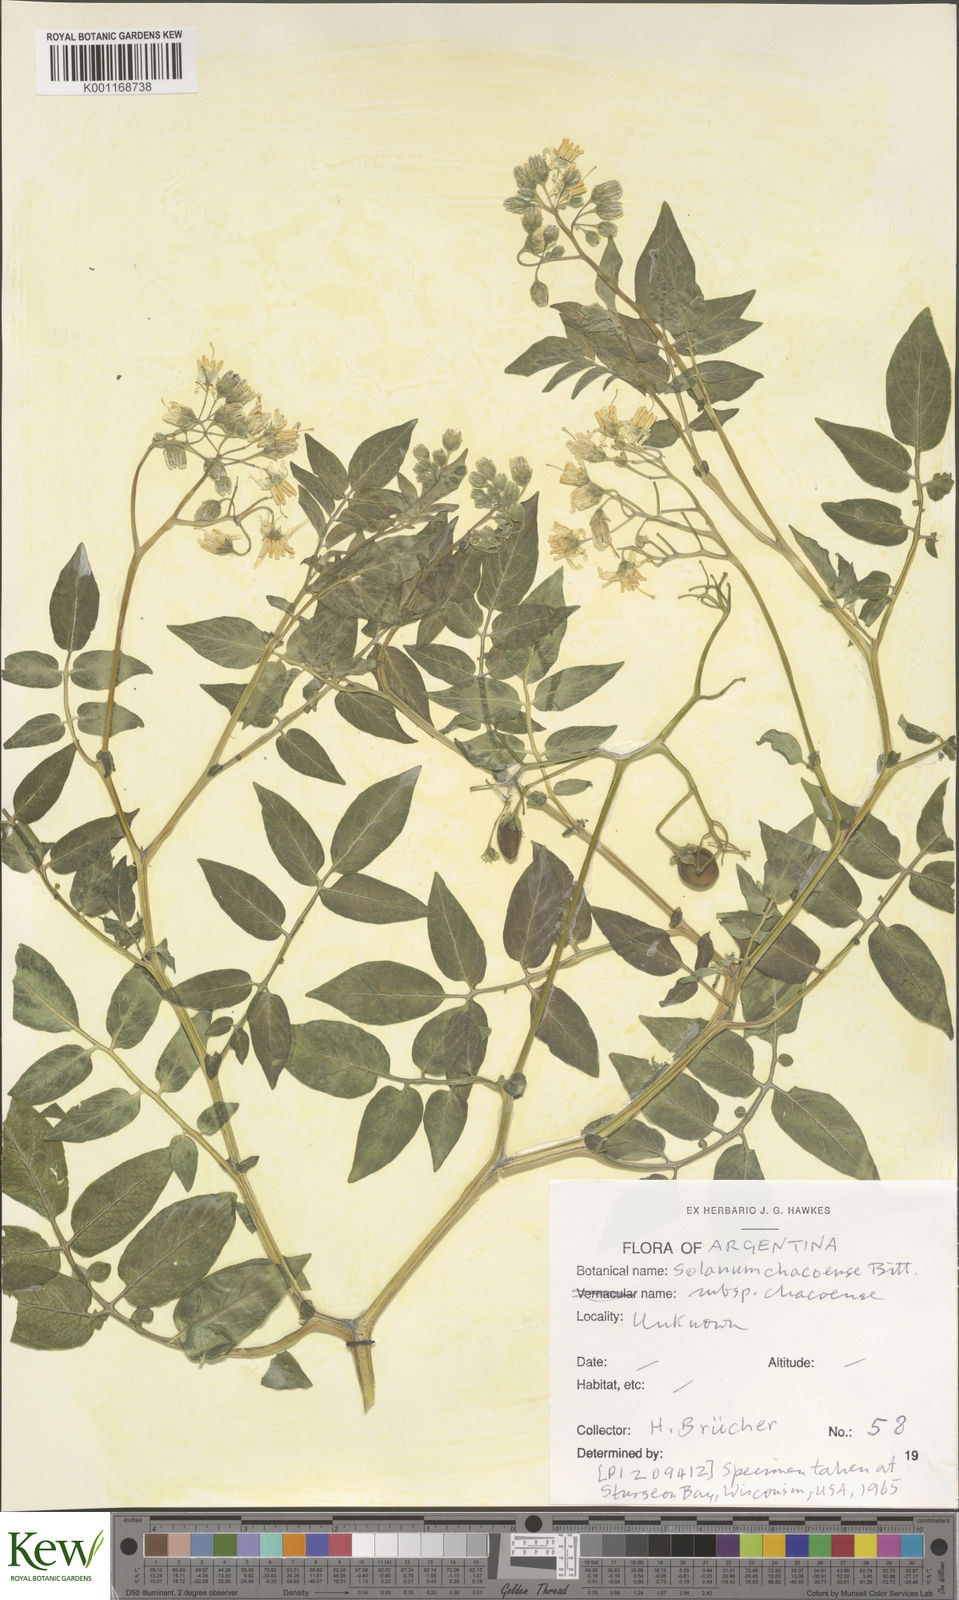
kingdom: Plantae
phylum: Tracheophyta
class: Magnoliopsida
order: Solanales
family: Solanaceae
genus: Solanum
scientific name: Solanum chacoense
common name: Chaco potato
